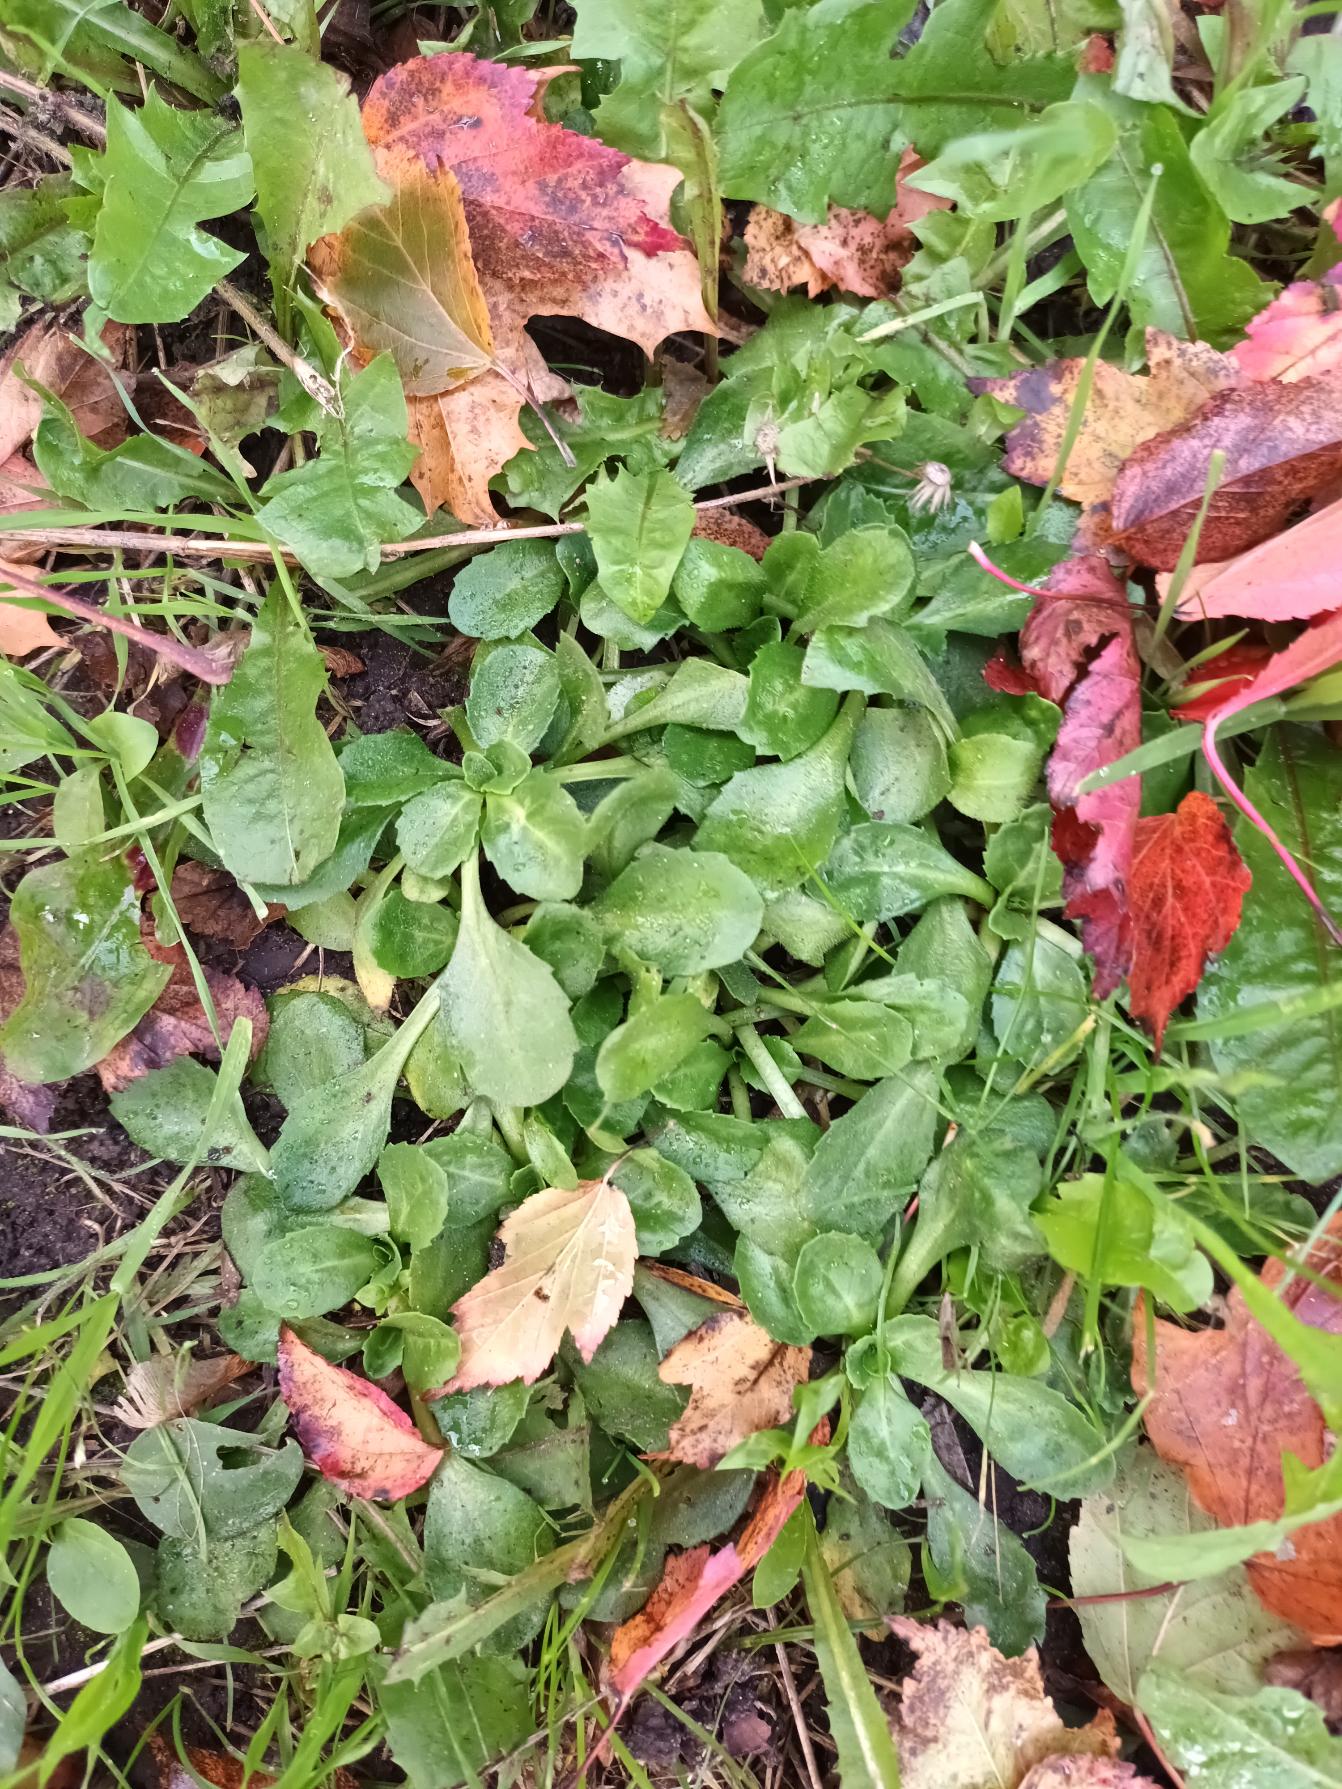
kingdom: Plantae
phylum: Tracheophyta
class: Magnoliopsida
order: Asterales
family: Asteraceae
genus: Bellis
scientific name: Bellis perennis
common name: Tusindfryd
